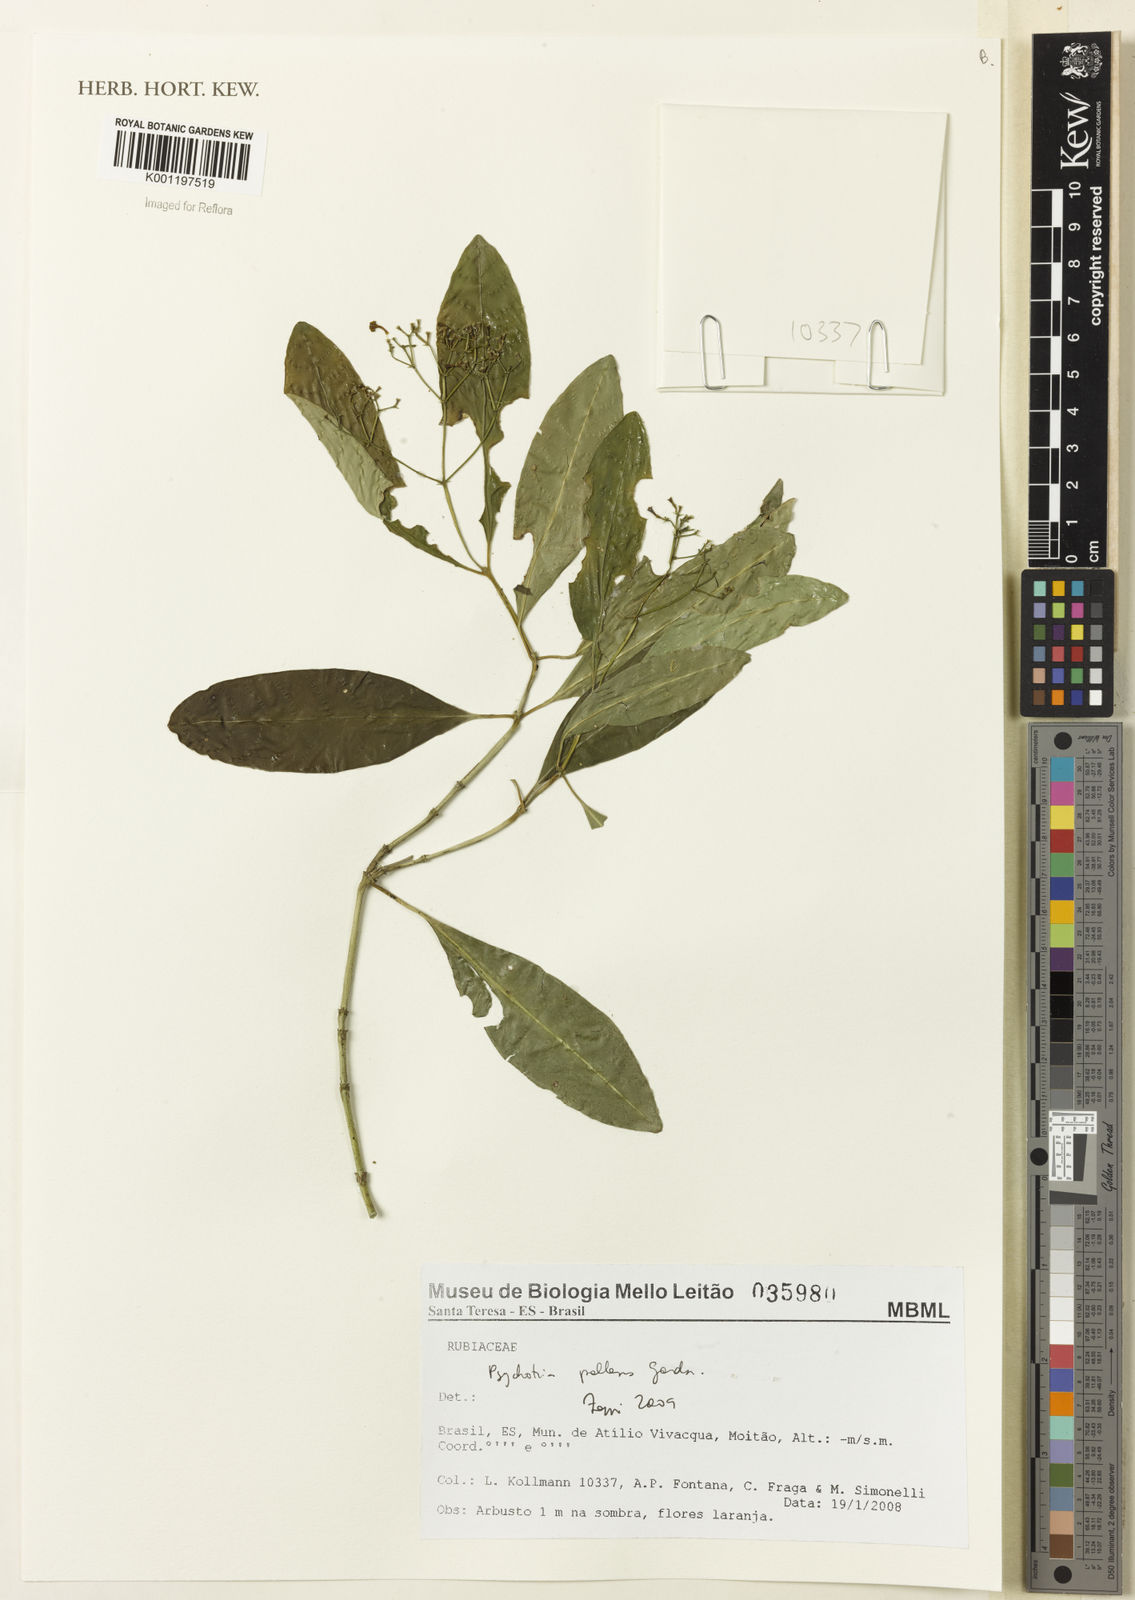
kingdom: Plantae
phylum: Tracheophyta
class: Magnoliopsida
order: Gentianales
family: Rubiaceae
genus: Psychotria
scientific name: Psychotria pallens
